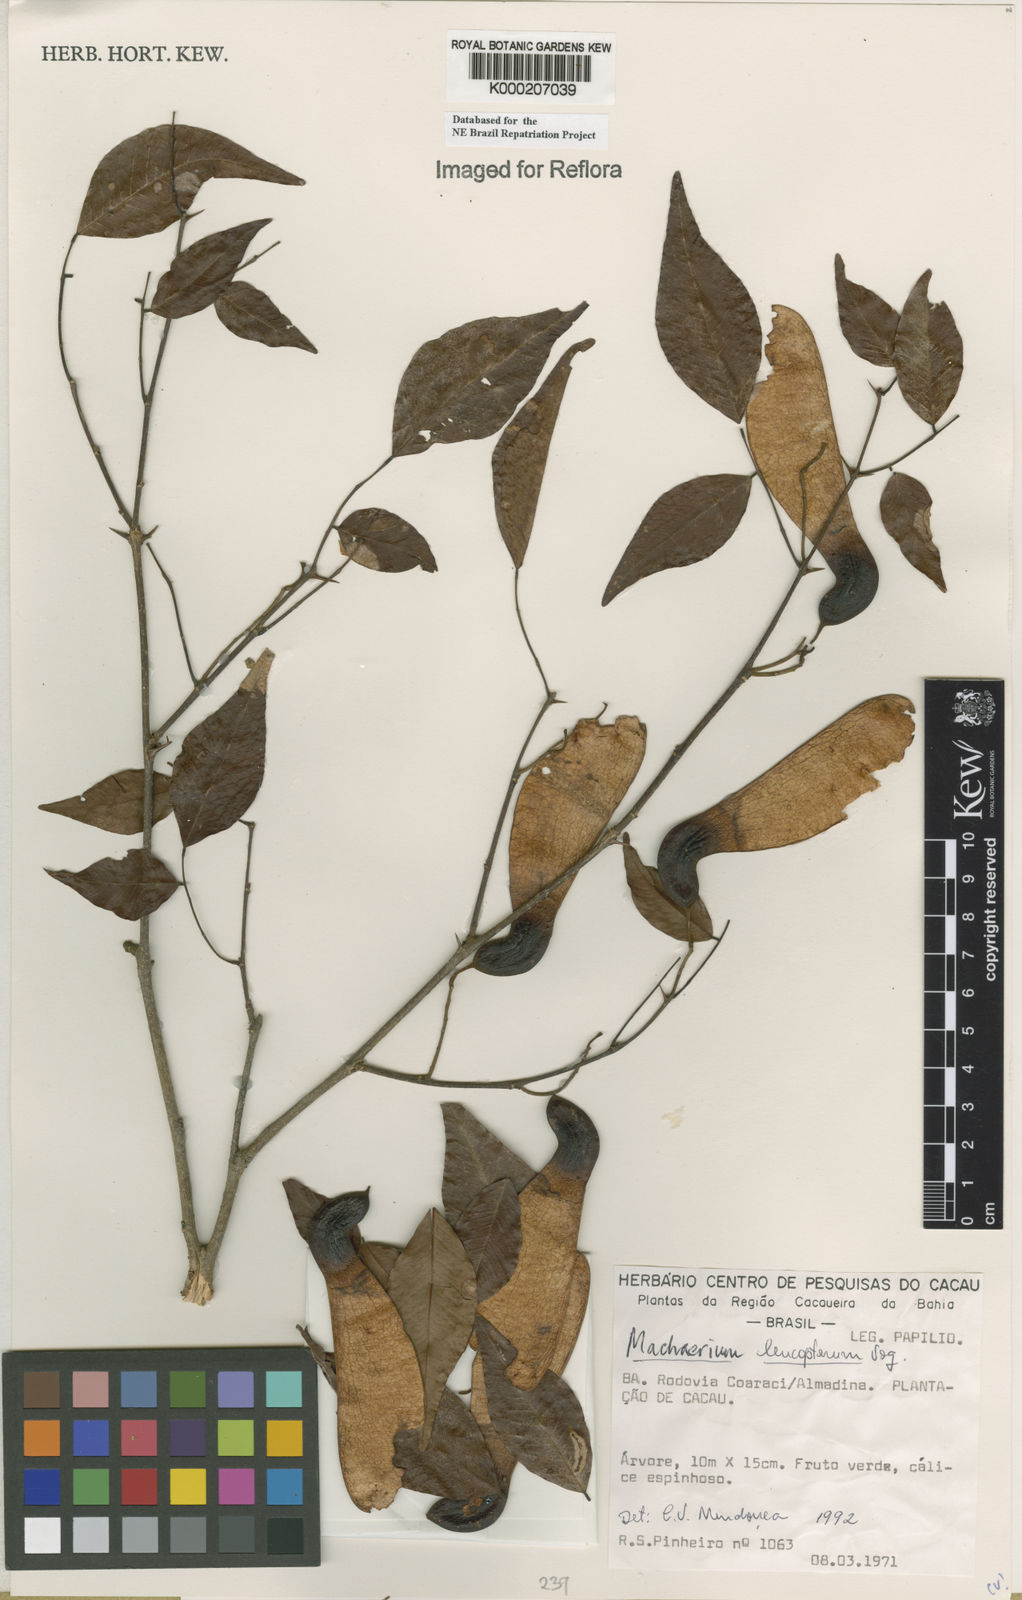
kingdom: Plantae
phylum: Tracheophyta
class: Magnoliopsida
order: Fabales
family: Fabaceae
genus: Machaerium
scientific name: Machaerium leucopterum
